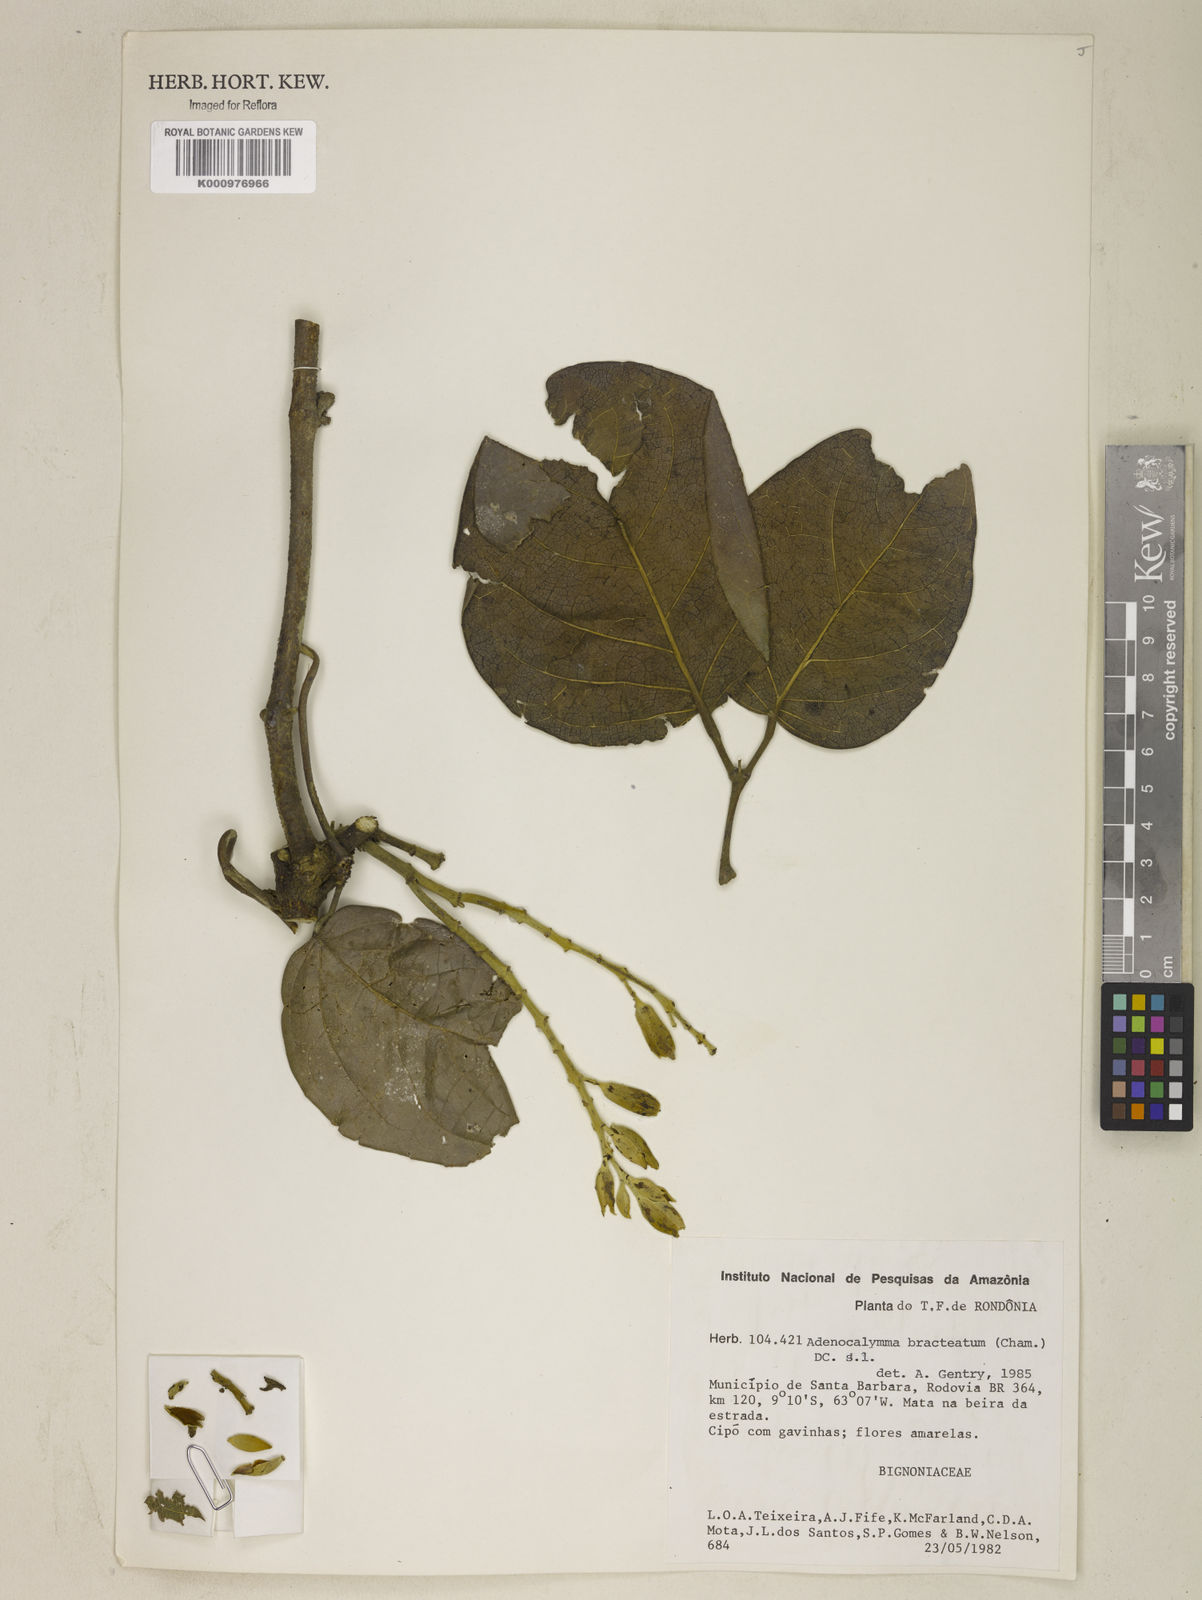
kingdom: Plantae
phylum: Tracheophyta
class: Magnoliopsida
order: Lamiales
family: Bignoniaceae
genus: Adenocalymma
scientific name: Adenocalymma bracteatum
